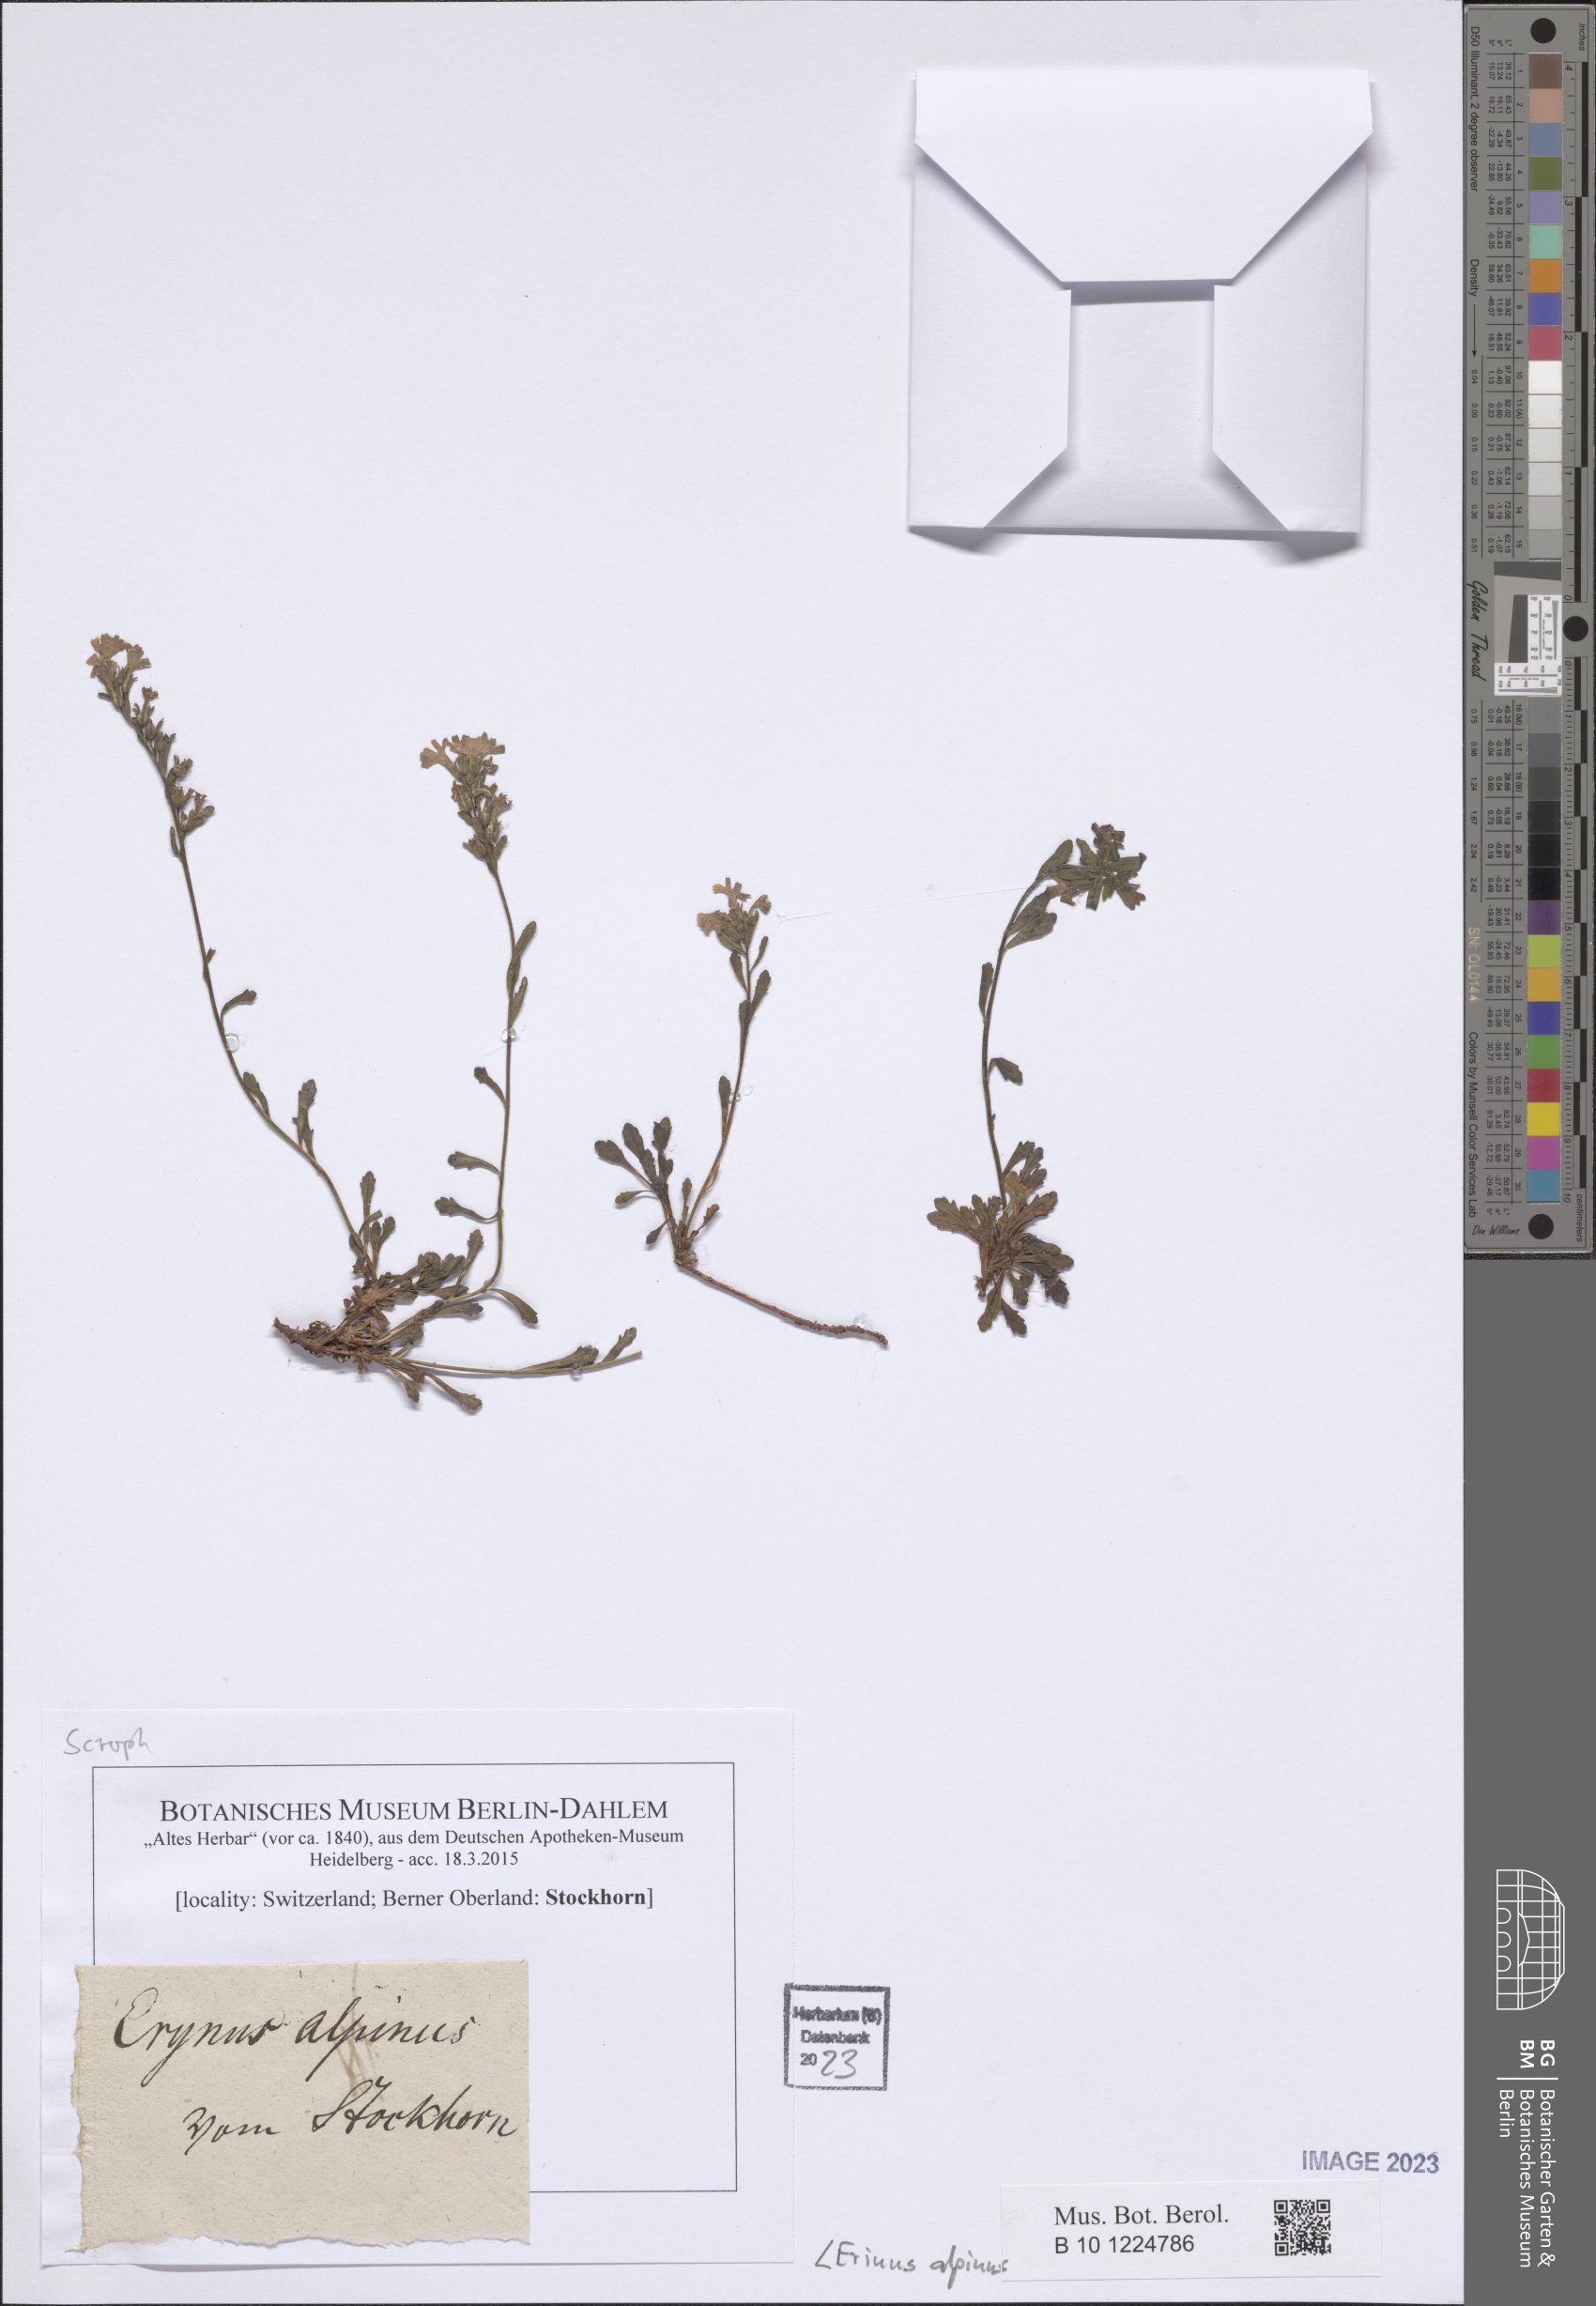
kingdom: Plantae
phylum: Tracheophyta
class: Magnoliopsida
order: Lamiales
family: Plantaginaceae
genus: Erinus
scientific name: Erinus alpinus
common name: Fairy foxglove
